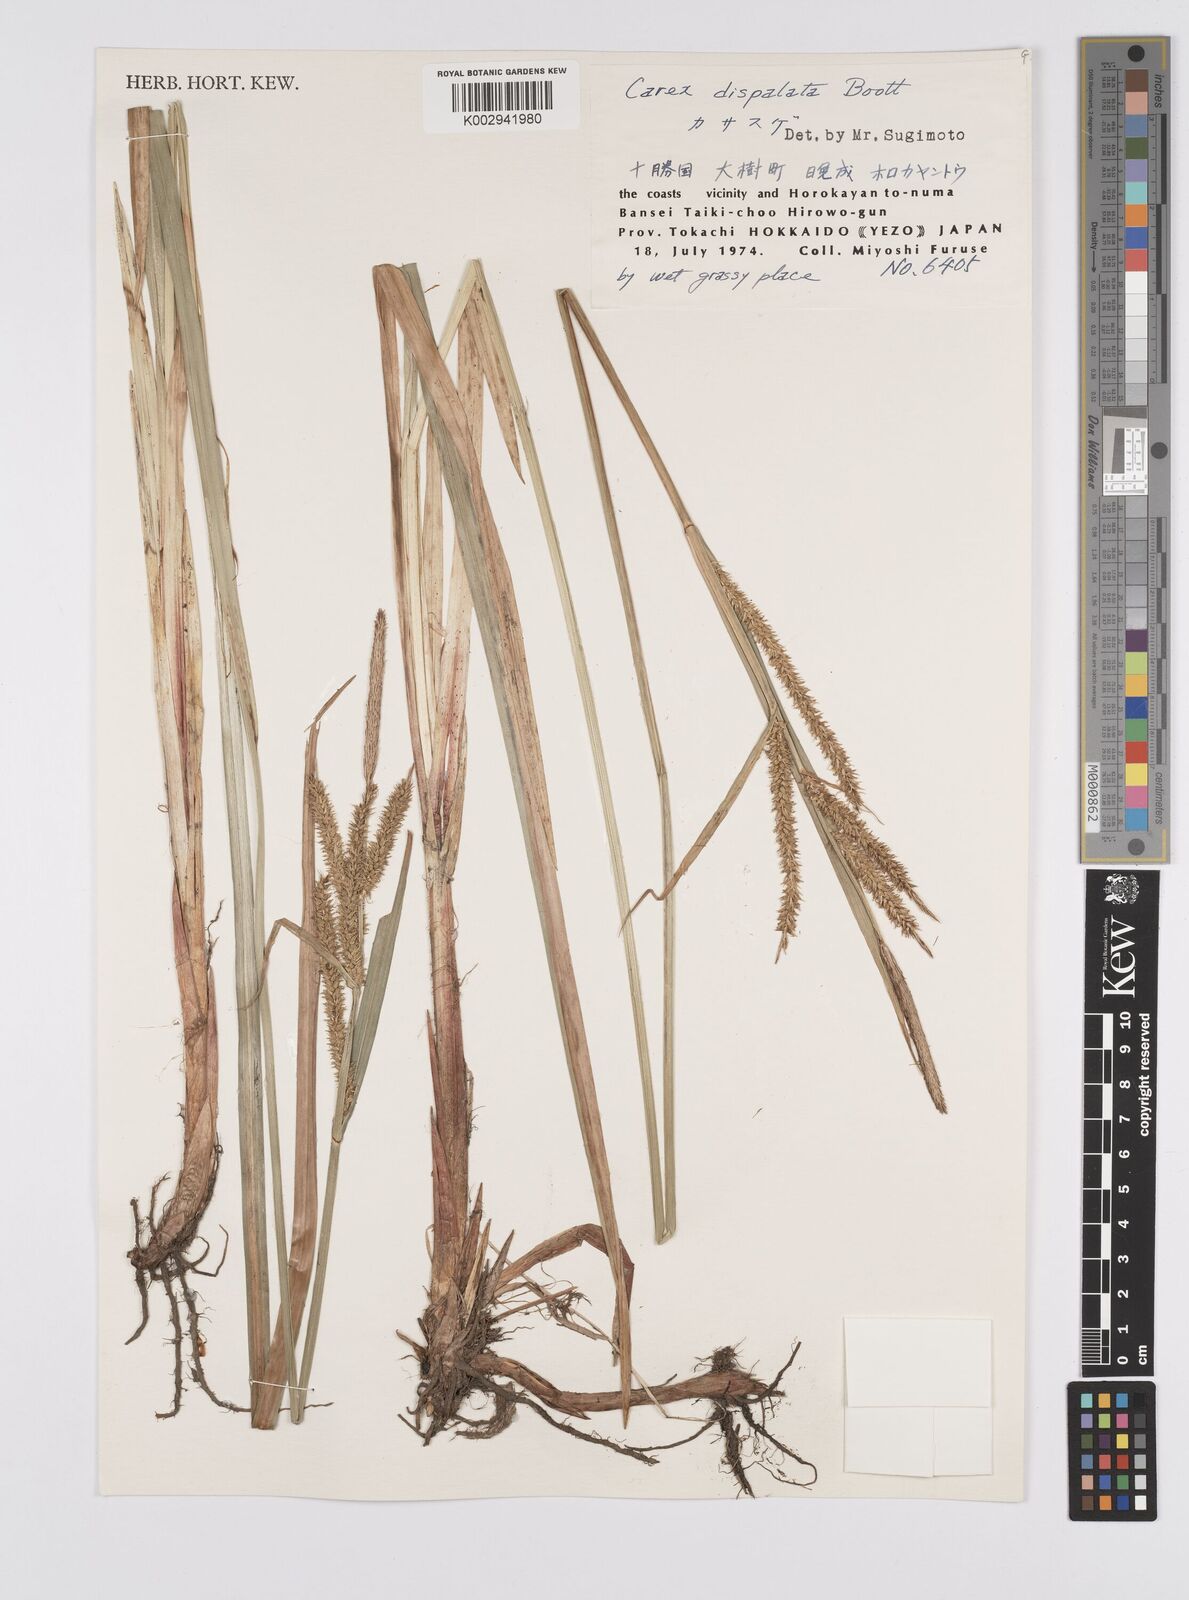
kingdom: Plantae
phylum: Tracheophyta
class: Liliopsida
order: Poales
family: Cyperaceae
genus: Carex
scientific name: Carex dispalata
